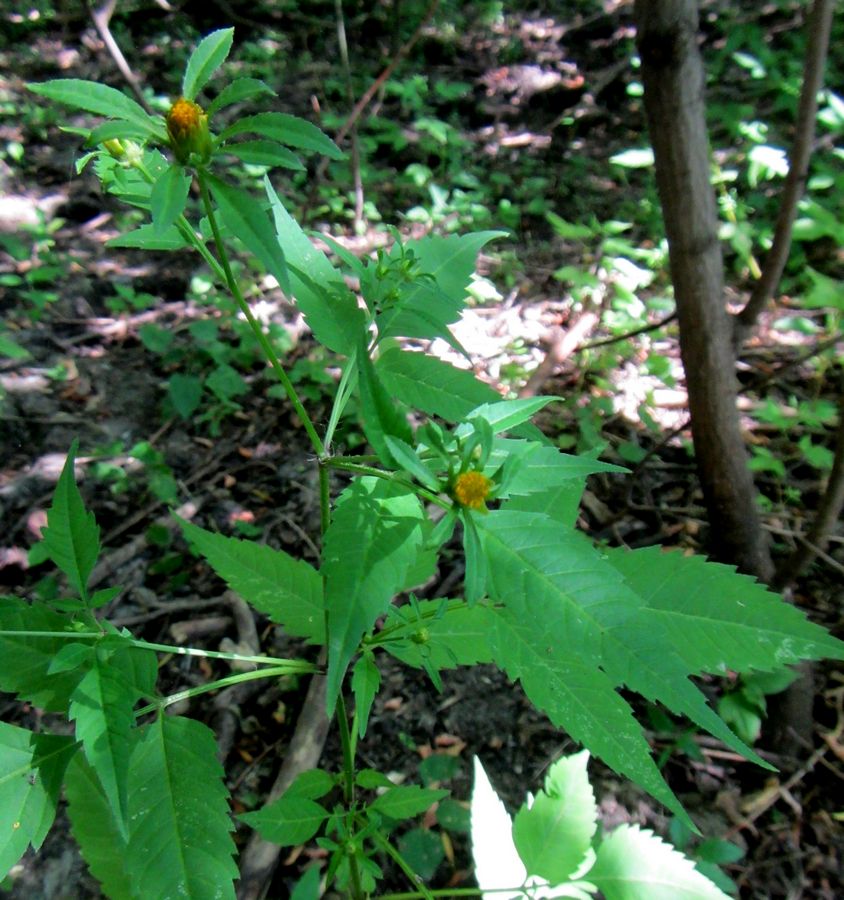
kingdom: Plantae
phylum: Tracheophyta
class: Magnoliopsida
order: Asterales
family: Asteraceae
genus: Bidens
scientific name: Bidens frondosa
